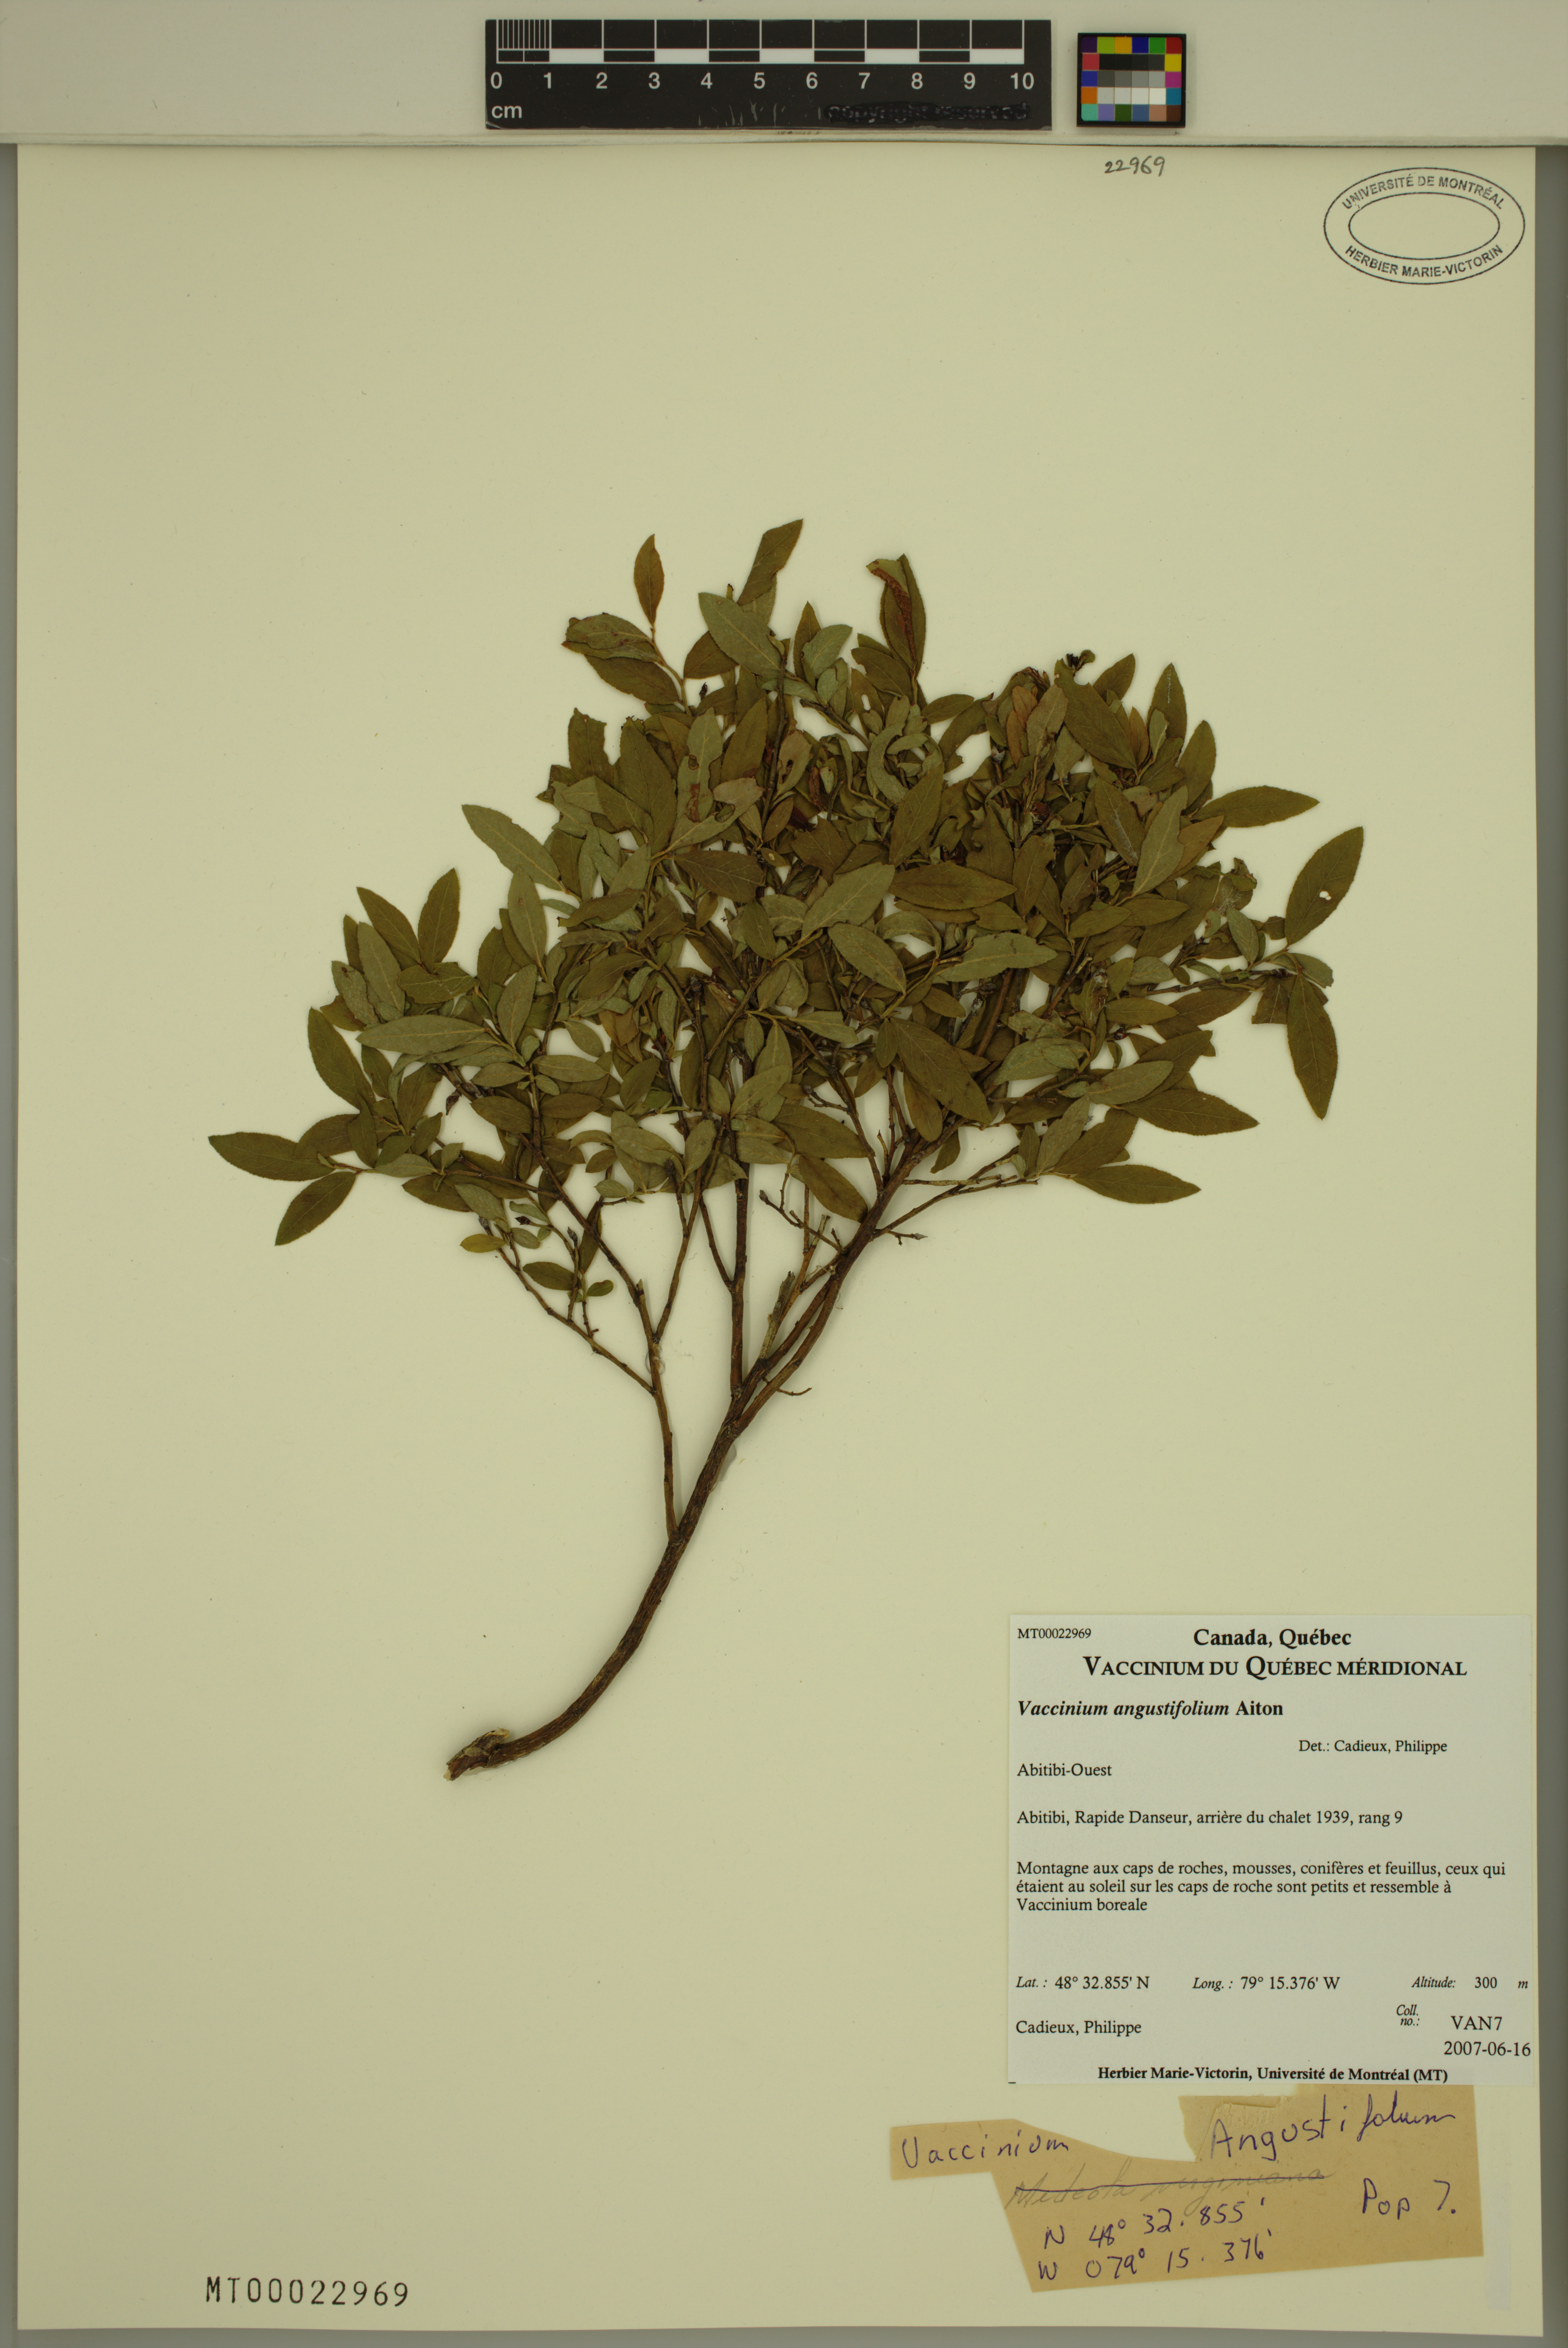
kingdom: Plantae
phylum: Tracheophyta
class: Magnoliopsida
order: Ericales
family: Ericaceae
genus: Vaccinium
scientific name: Vaccinium angustifolium
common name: Early lowbush blueberry
